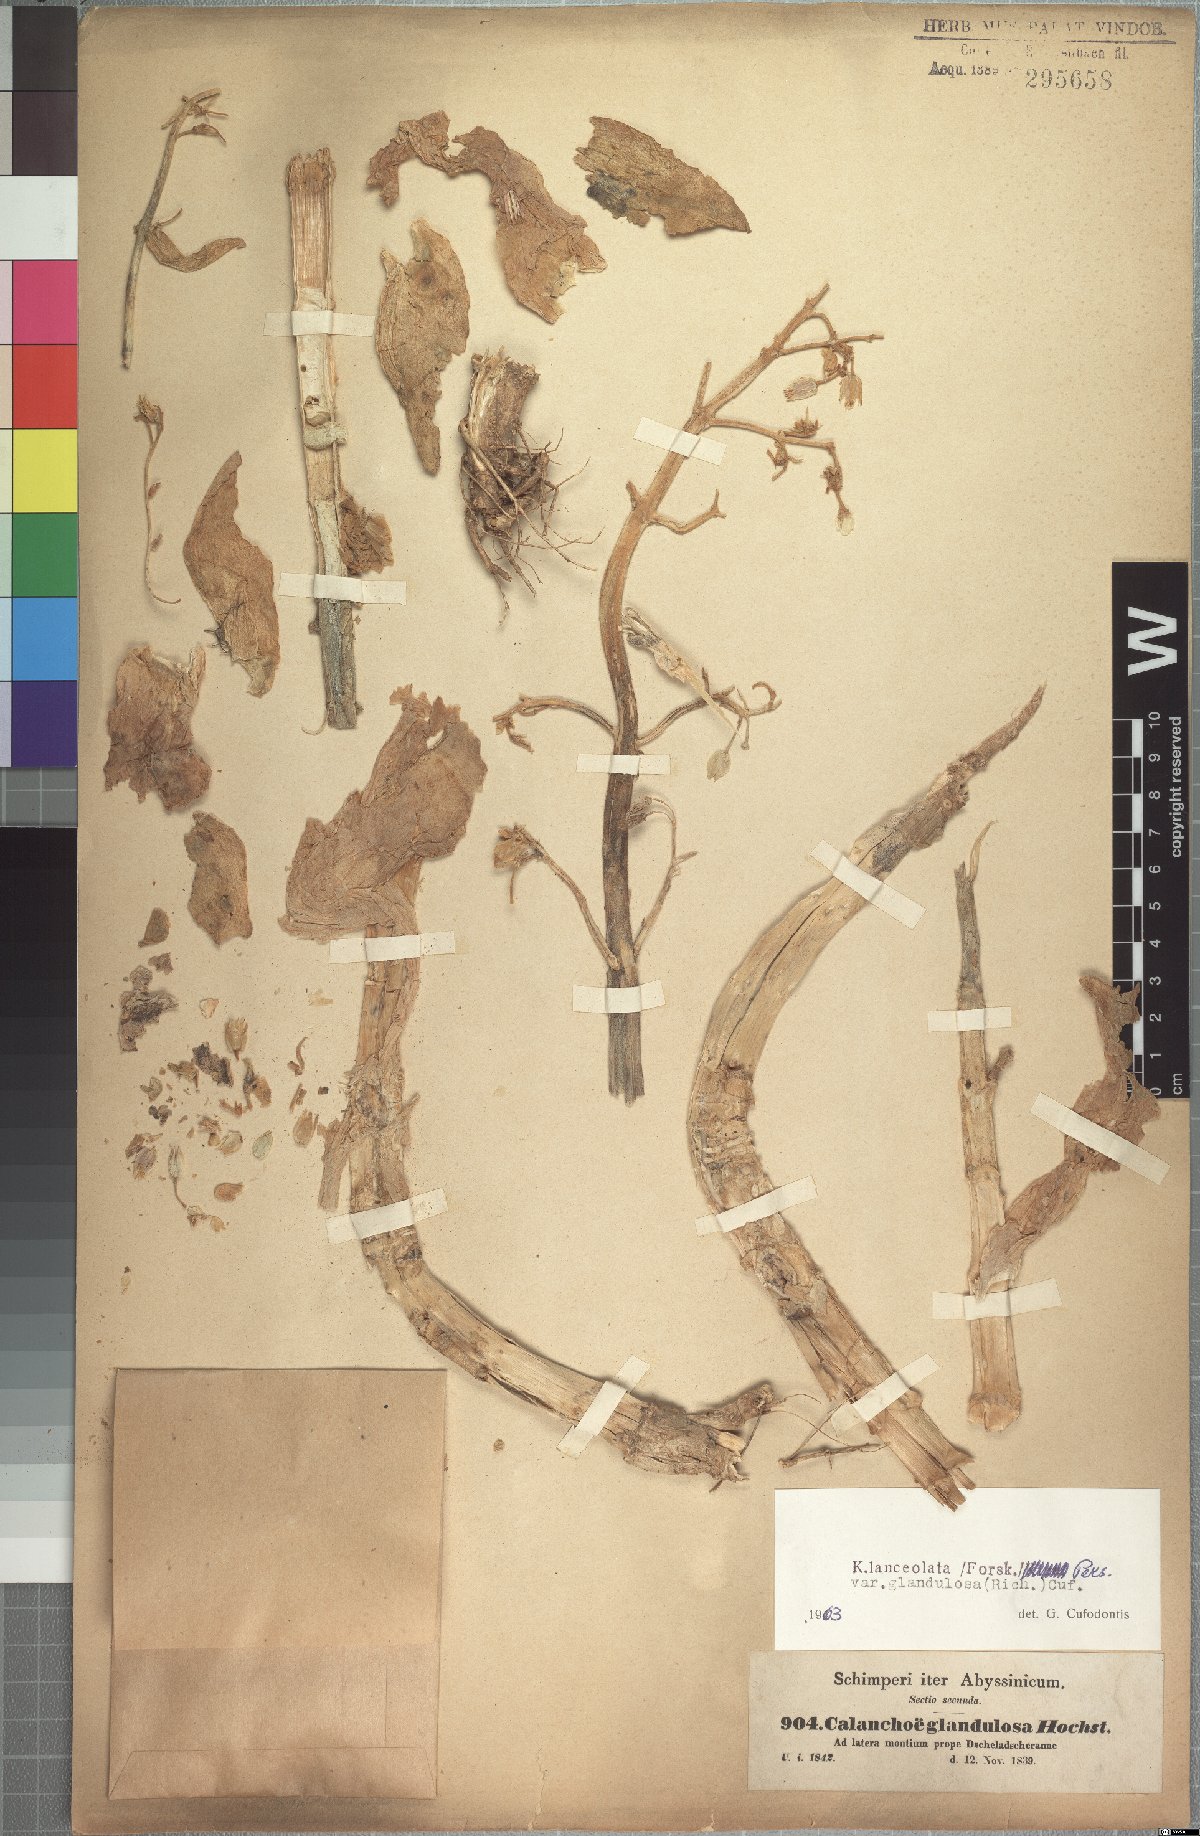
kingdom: Plantae
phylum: Tracheophyta
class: Magnoliopsida
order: Saxifragales
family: Crassulaceae
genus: Kalanchoe
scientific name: Kalanchoe lanceolata
